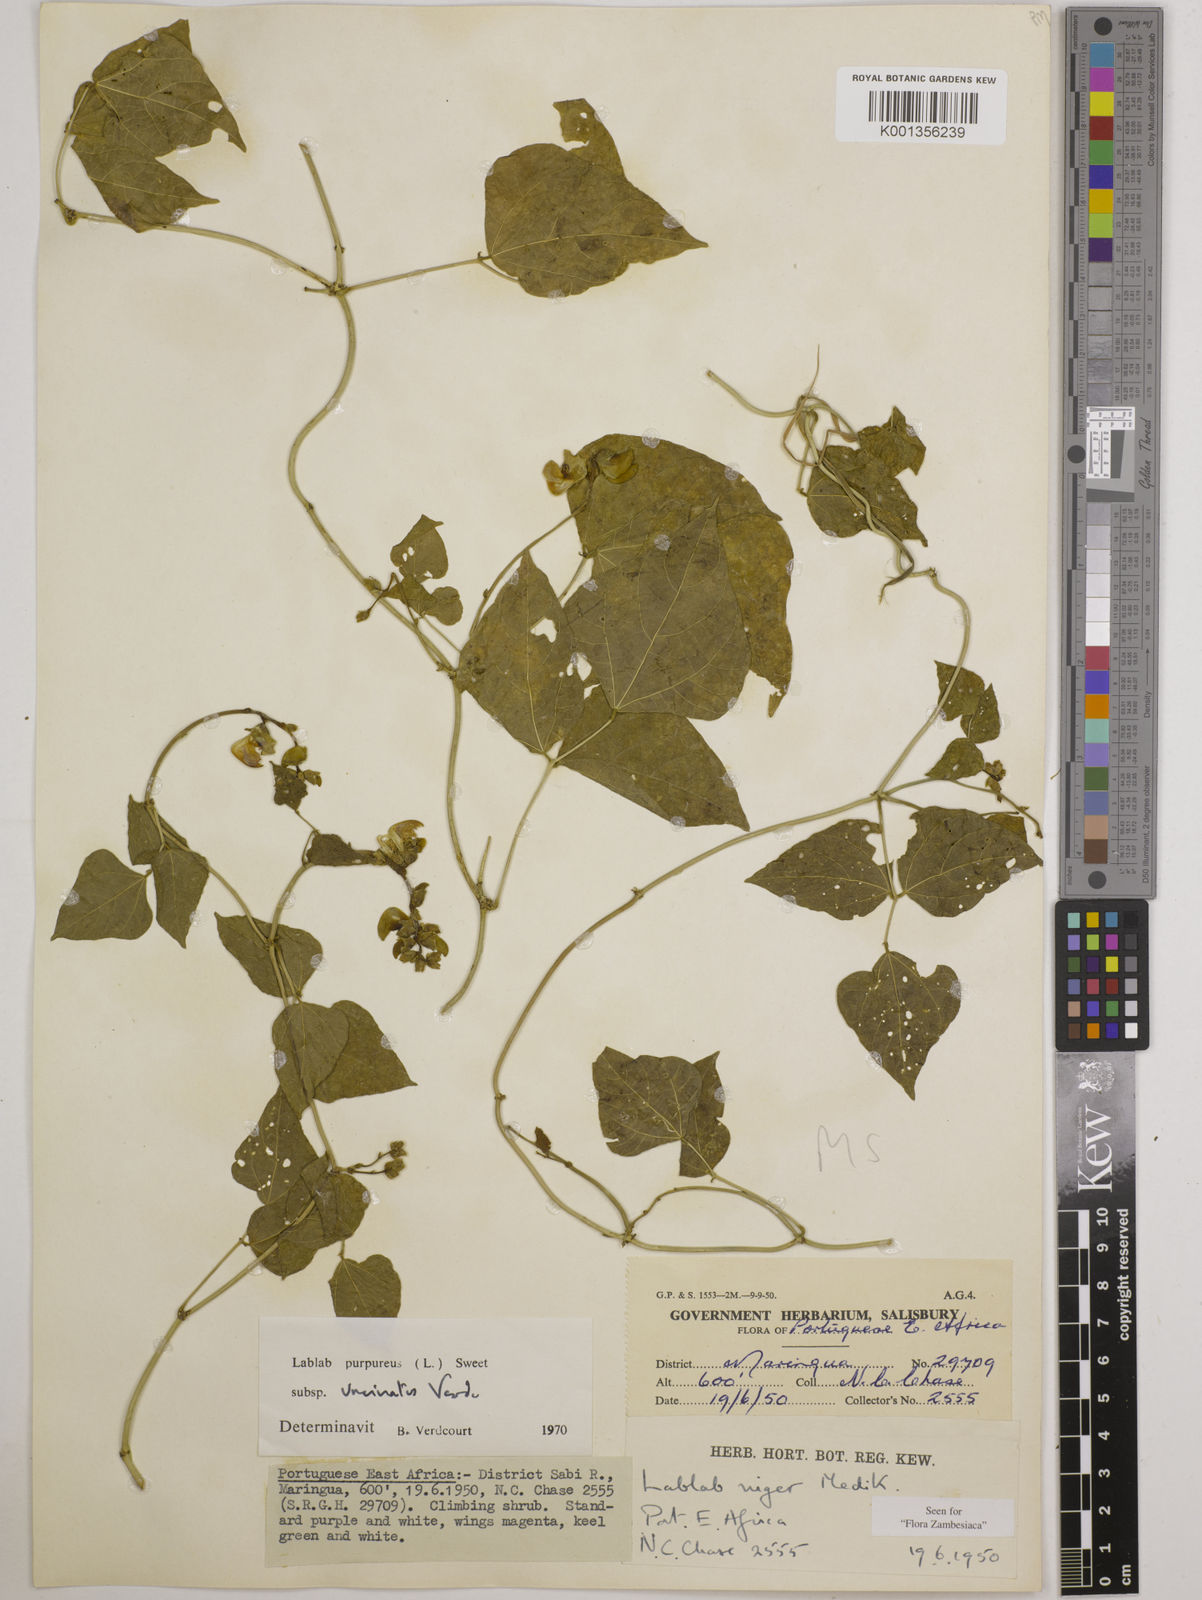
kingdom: Plantae
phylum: Tracheophyta
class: Magnoliopsida
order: Fabales
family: Fabaceae
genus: Lablab
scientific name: Lablab purpureus
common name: Lablab-bean
